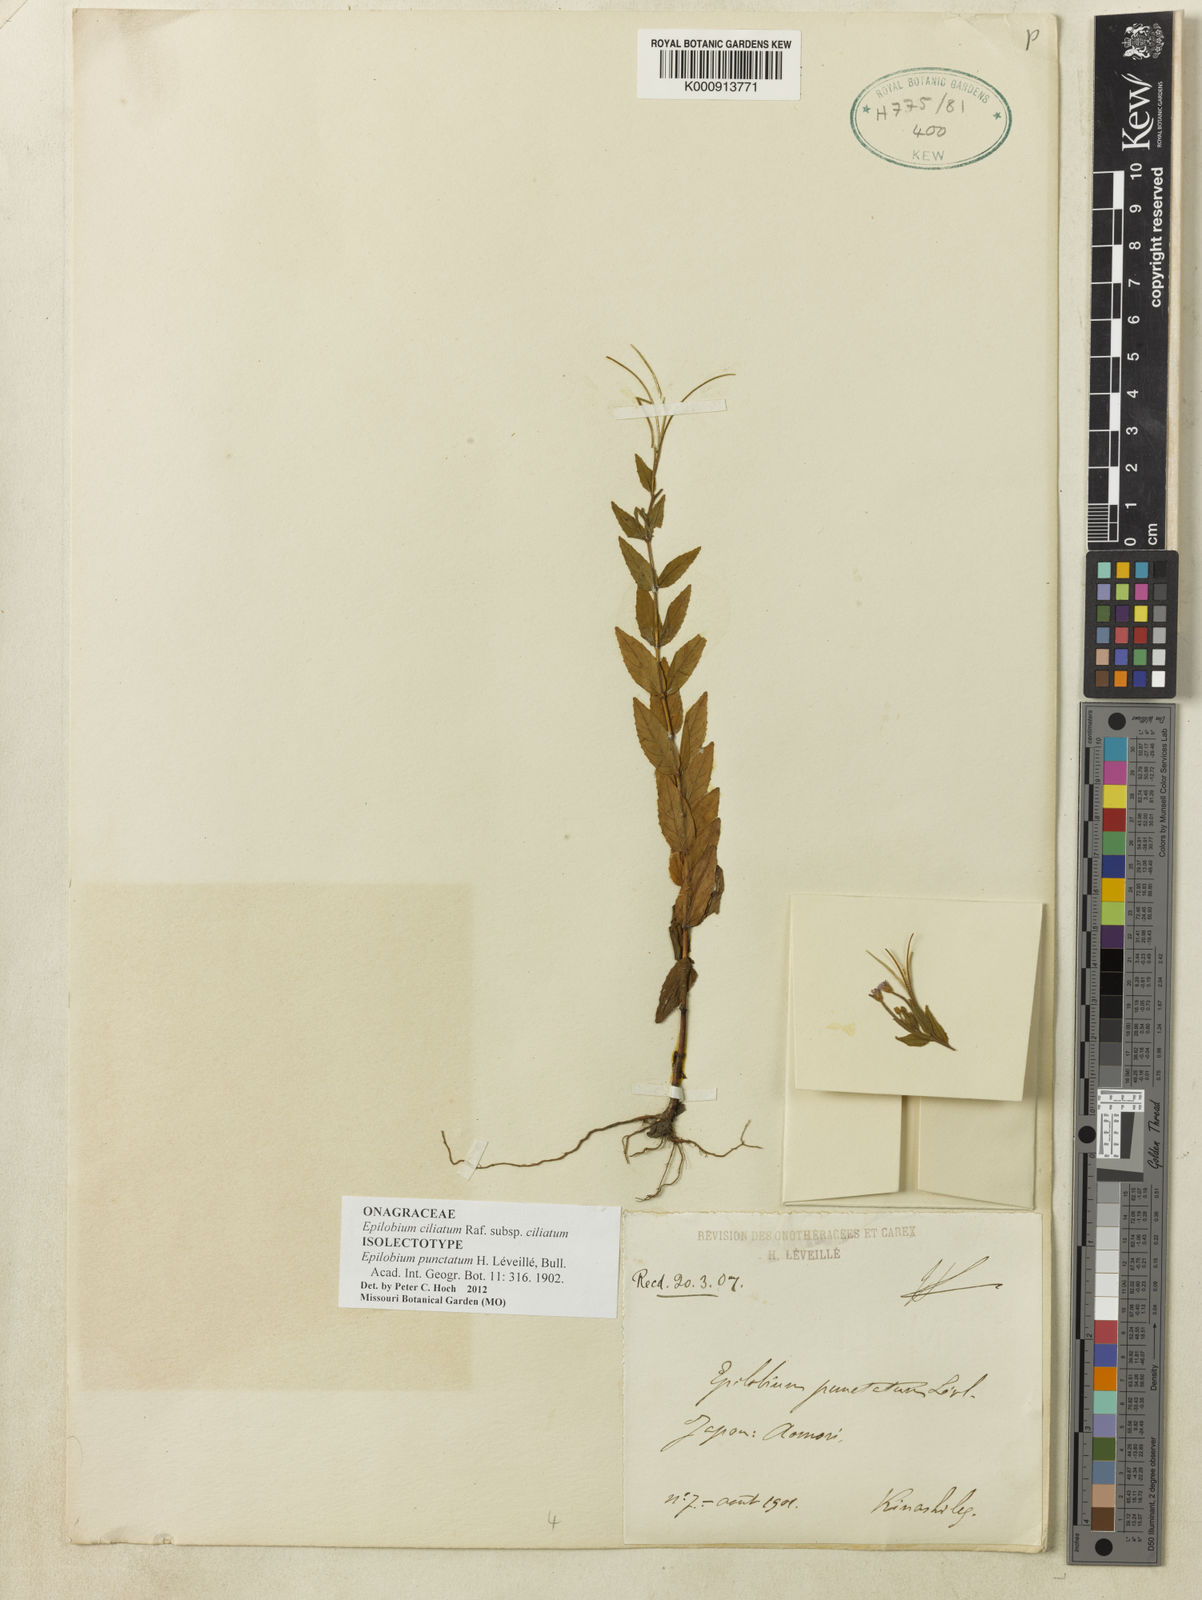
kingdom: Plantae
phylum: Tracheophyta
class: Magnoliopsida
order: Myrtales
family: Onagraceae
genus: Epilobium
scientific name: Epilobium ciliatum
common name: American willowherb
